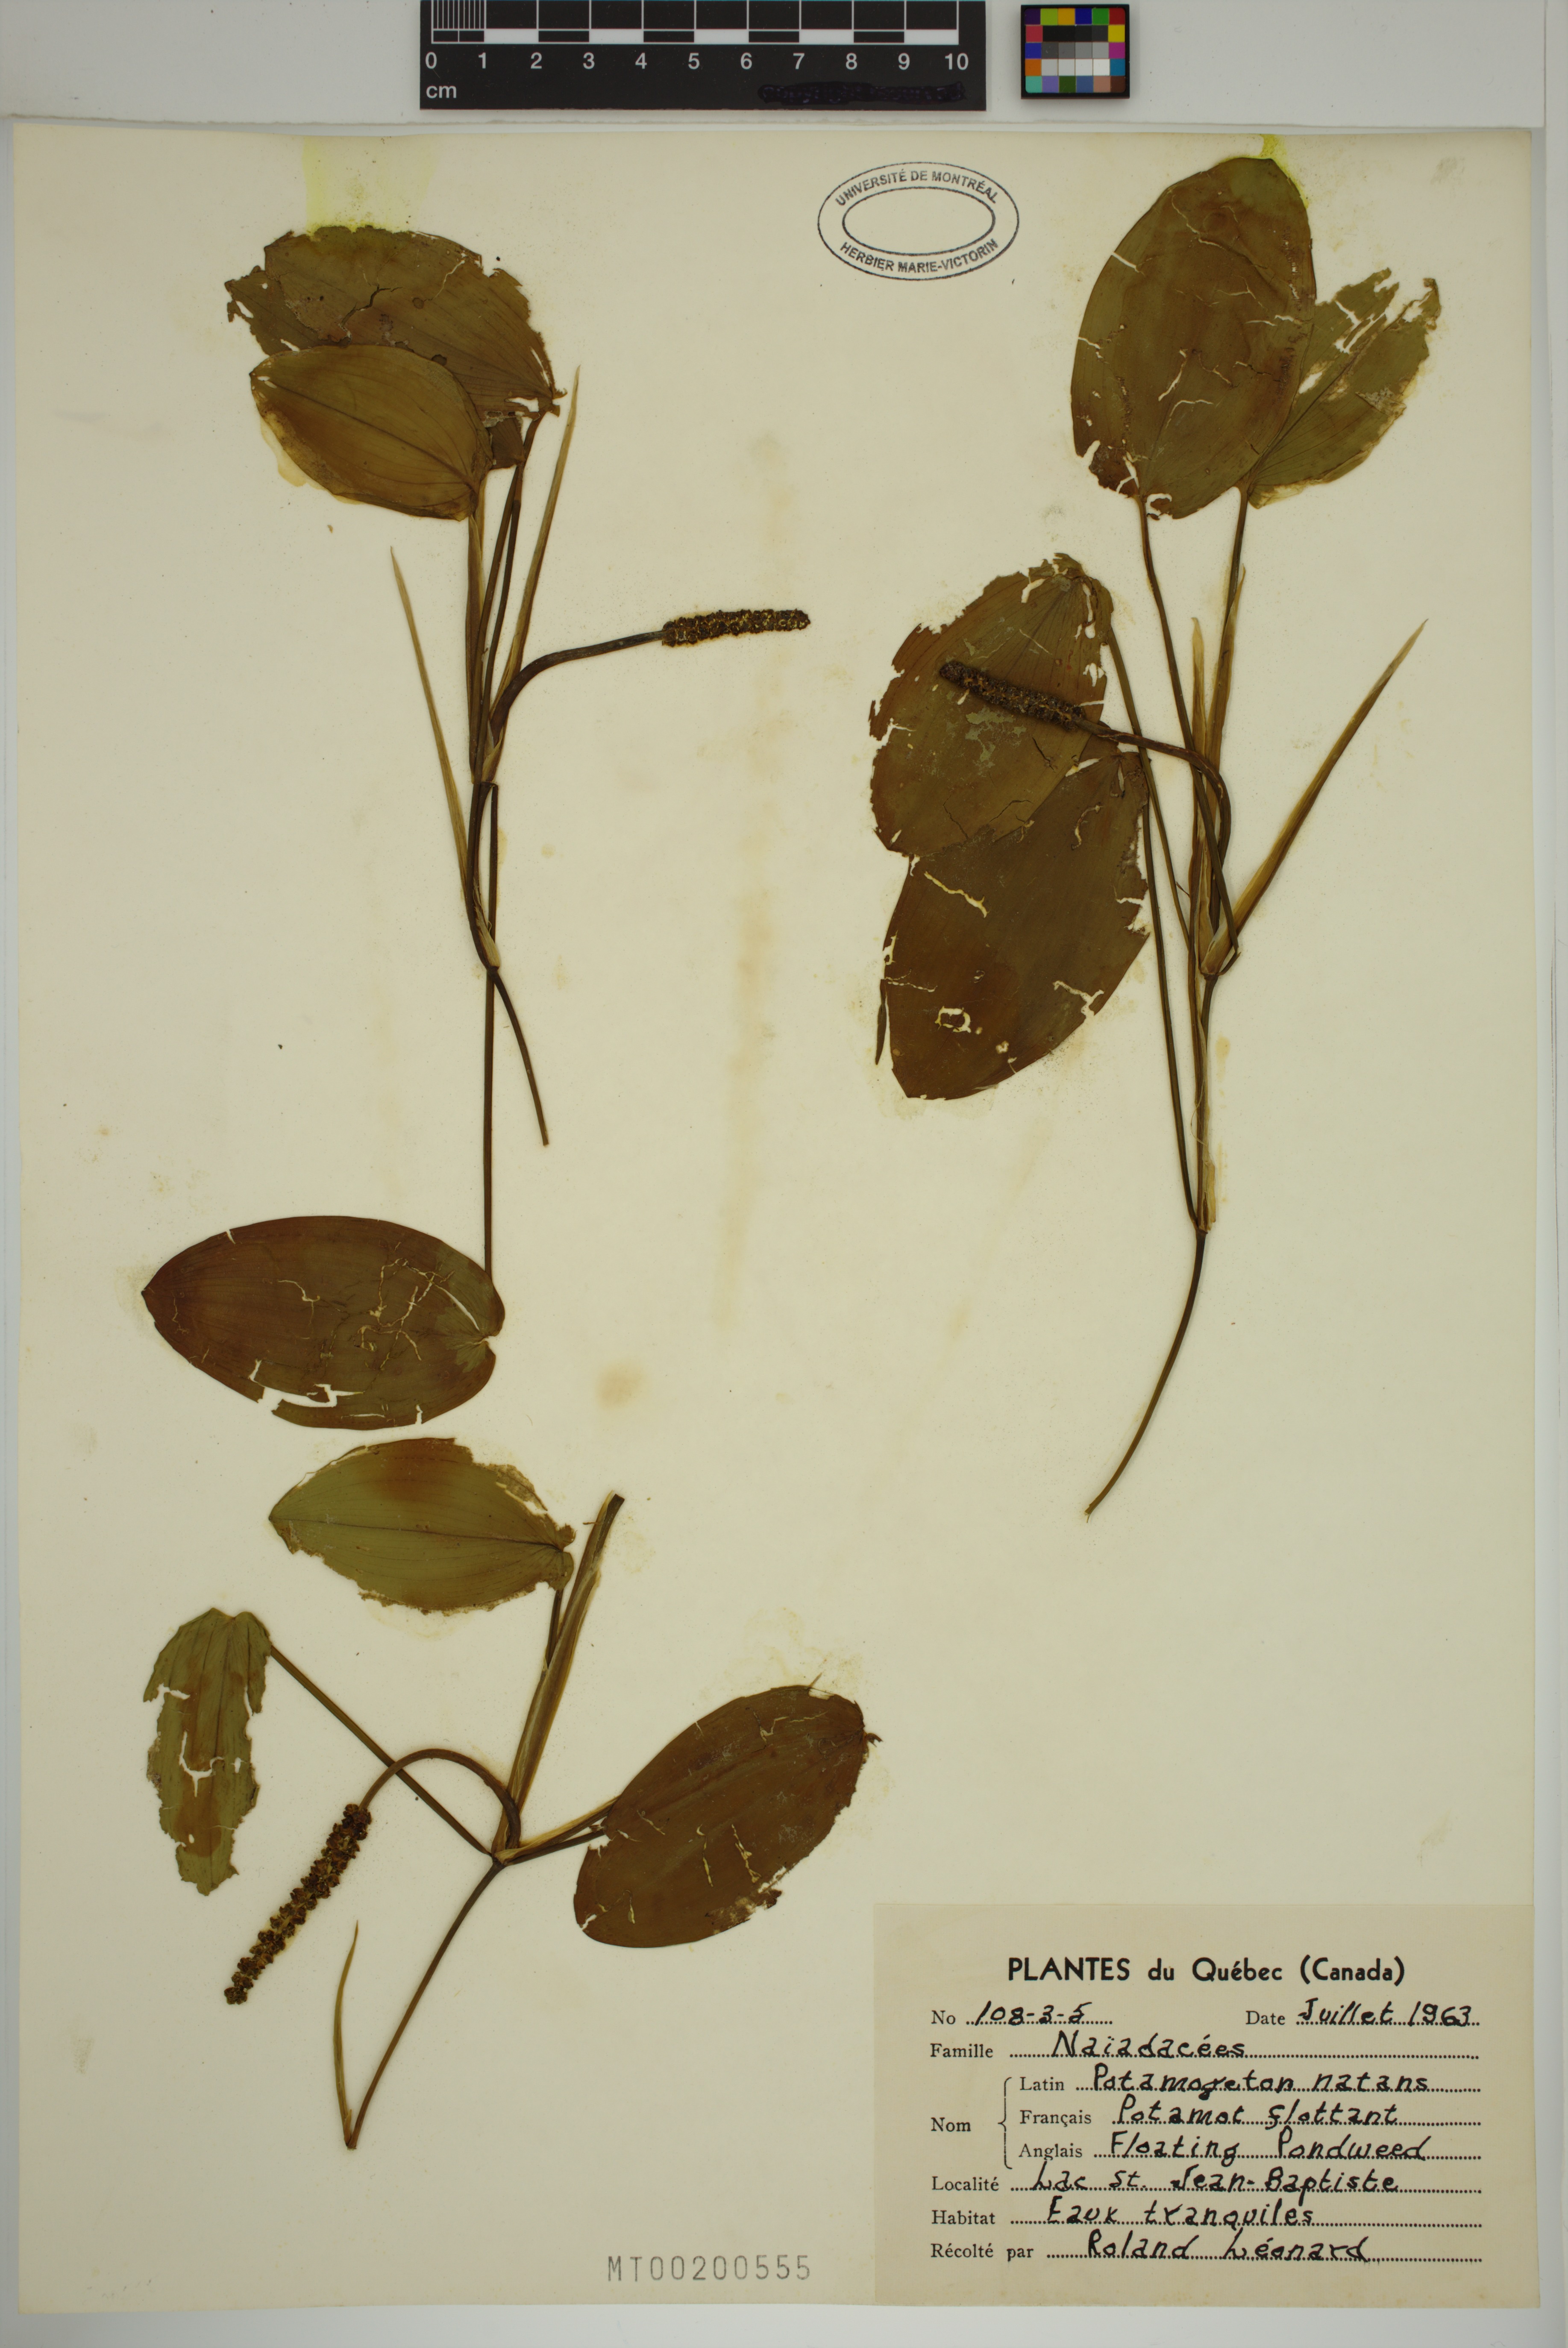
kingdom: Plantae
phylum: Tracheophyta
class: Liliopsida
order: Alismatales
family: Potamogetonaceae
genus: Potamogeton
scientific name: Potamogeton natans
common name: Broad-leaved pondweed
